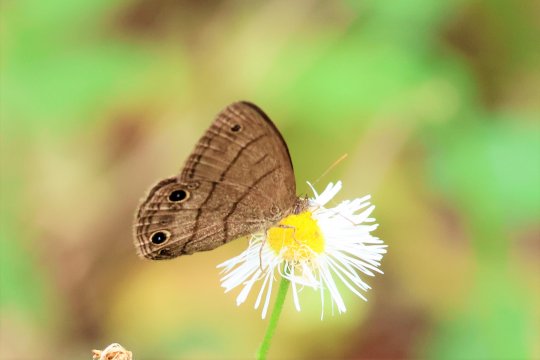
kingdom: Animalia
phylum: Arthropoda
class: Insecta
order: Lepidoptera
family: Nymphalidae
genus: Hermeuptychia
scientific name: Hermeuptychia hermes
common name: Carolina Satyr
